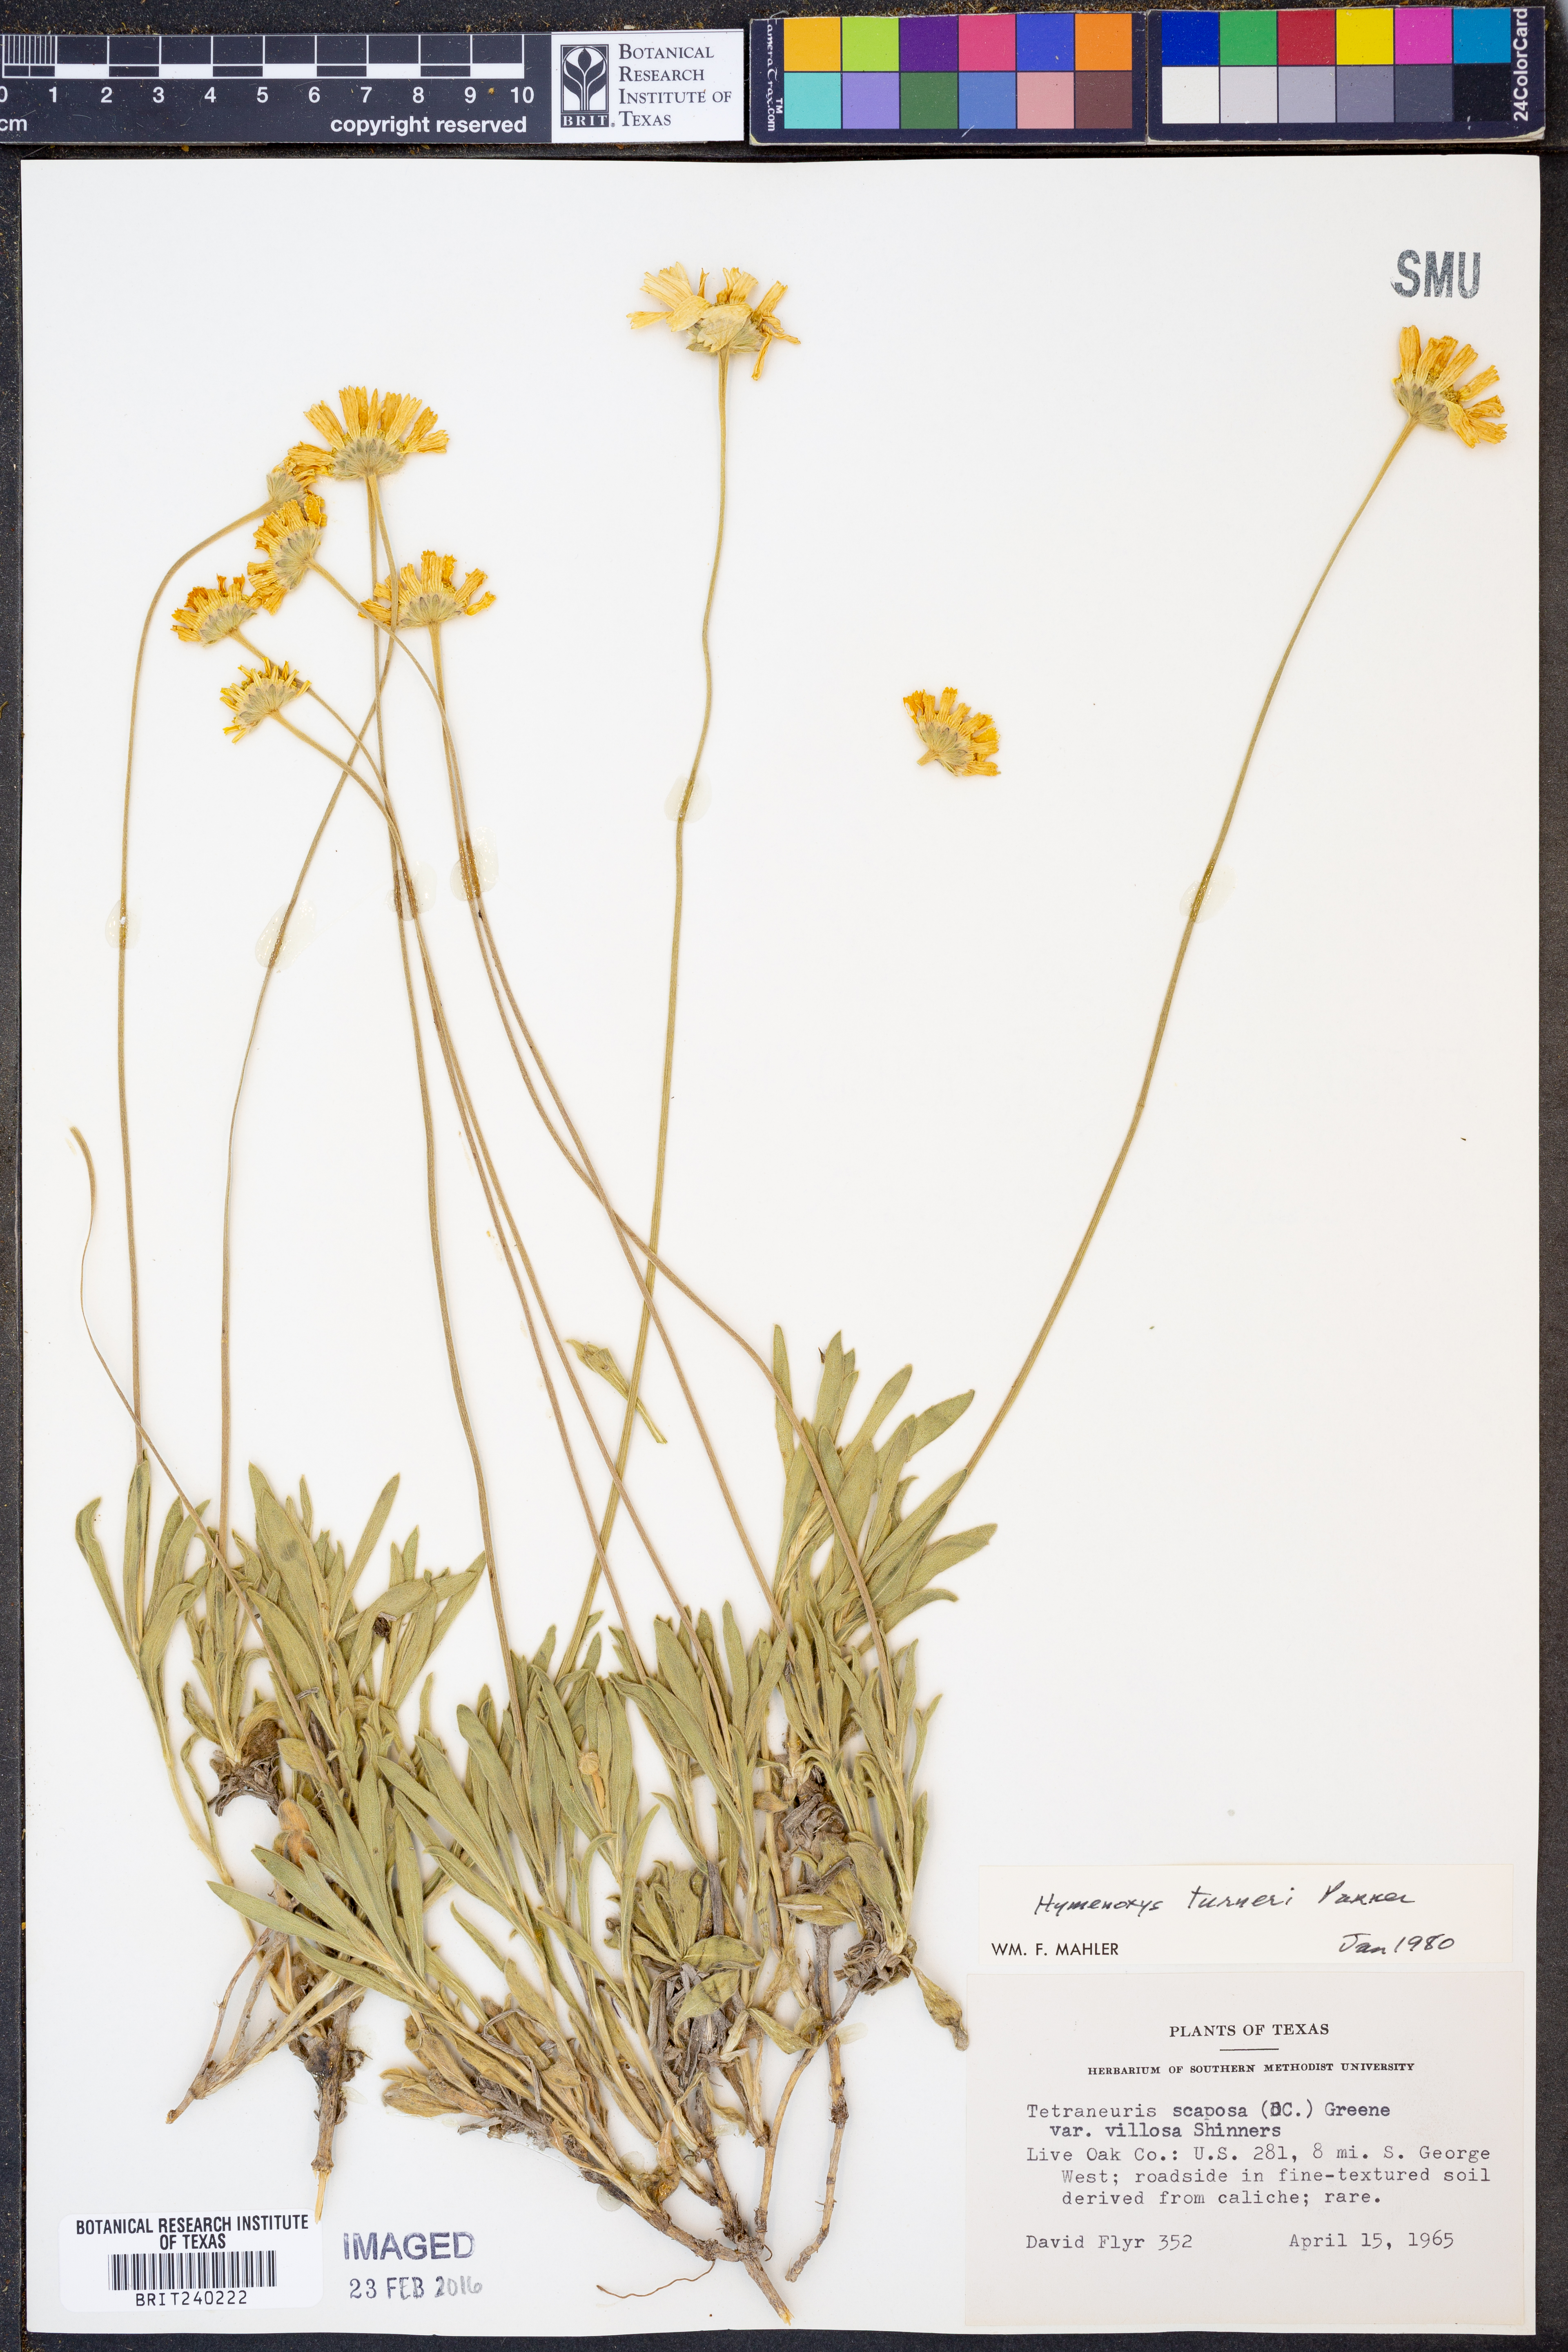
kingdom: Plantae
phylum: Tracheophyta
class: Magnoliopsida
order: Asterales
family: Asteraceae
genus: Tetraneuris
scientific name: Tetraneuris turneri
